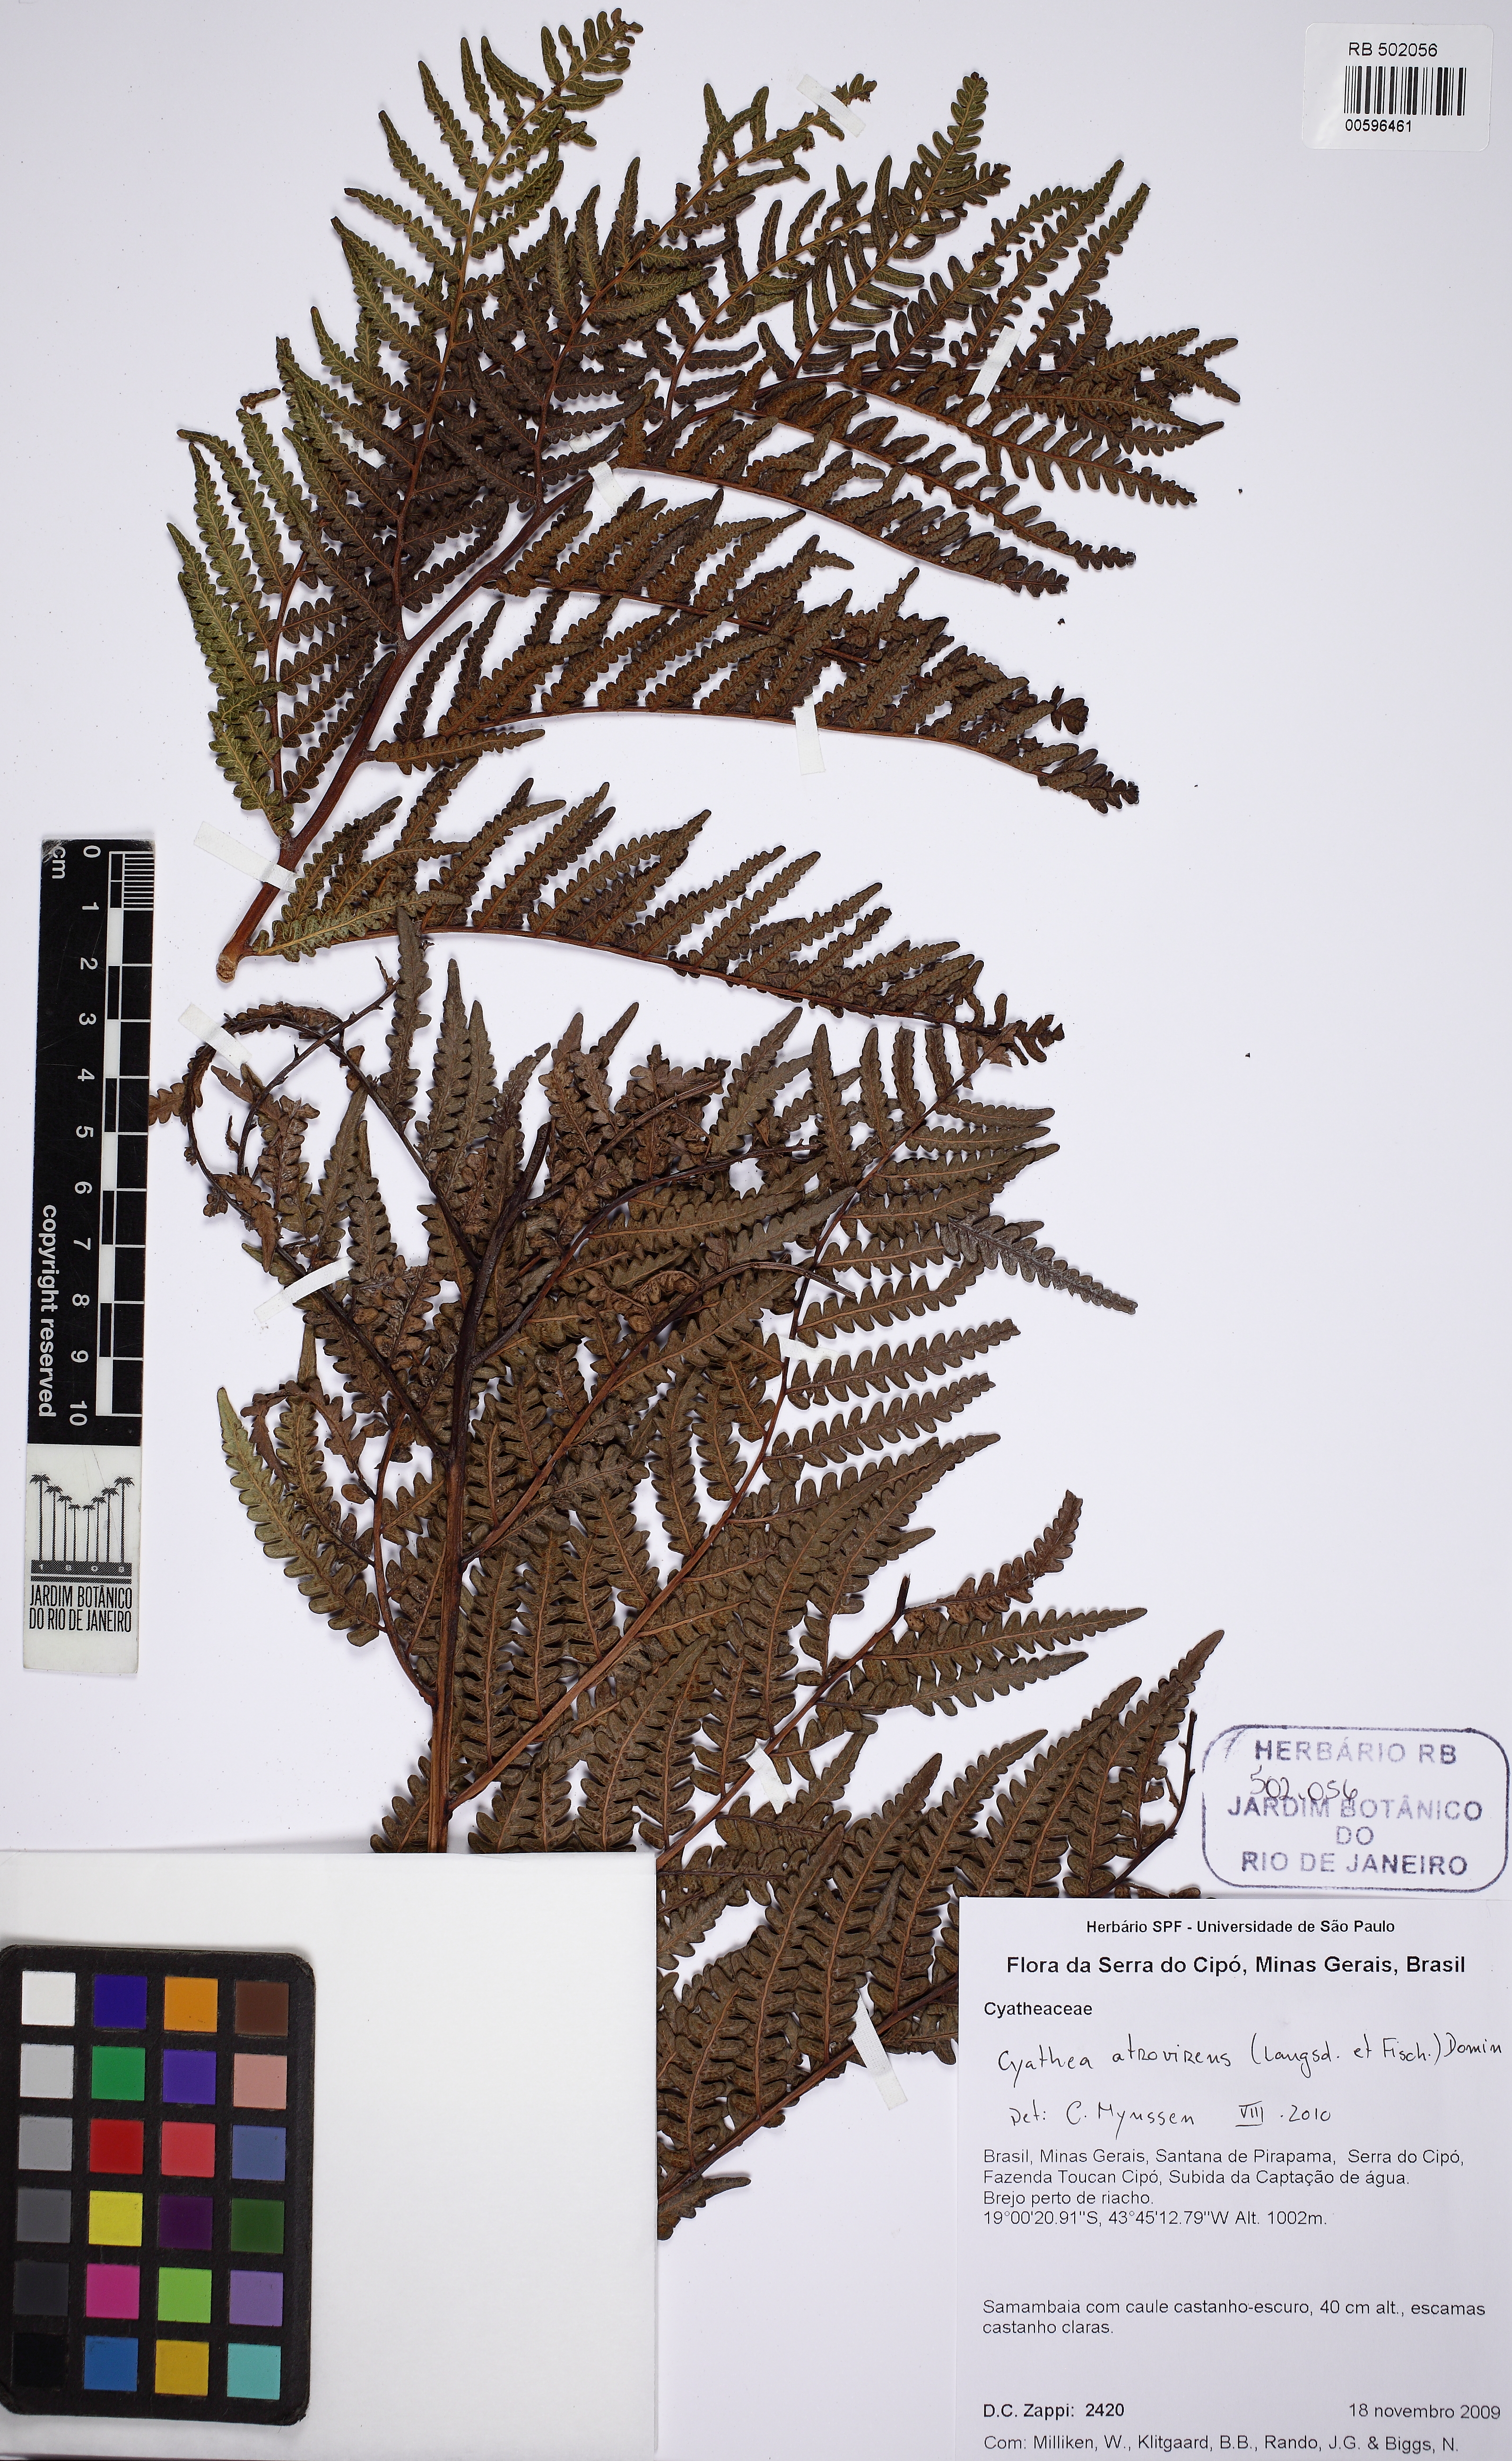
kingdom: Plantae
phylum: Tracheophyta
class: Polypodiopsida
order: Cyatheales
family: Cyatheaceae
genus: Cyathea
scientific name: Cyathea atrovirens
